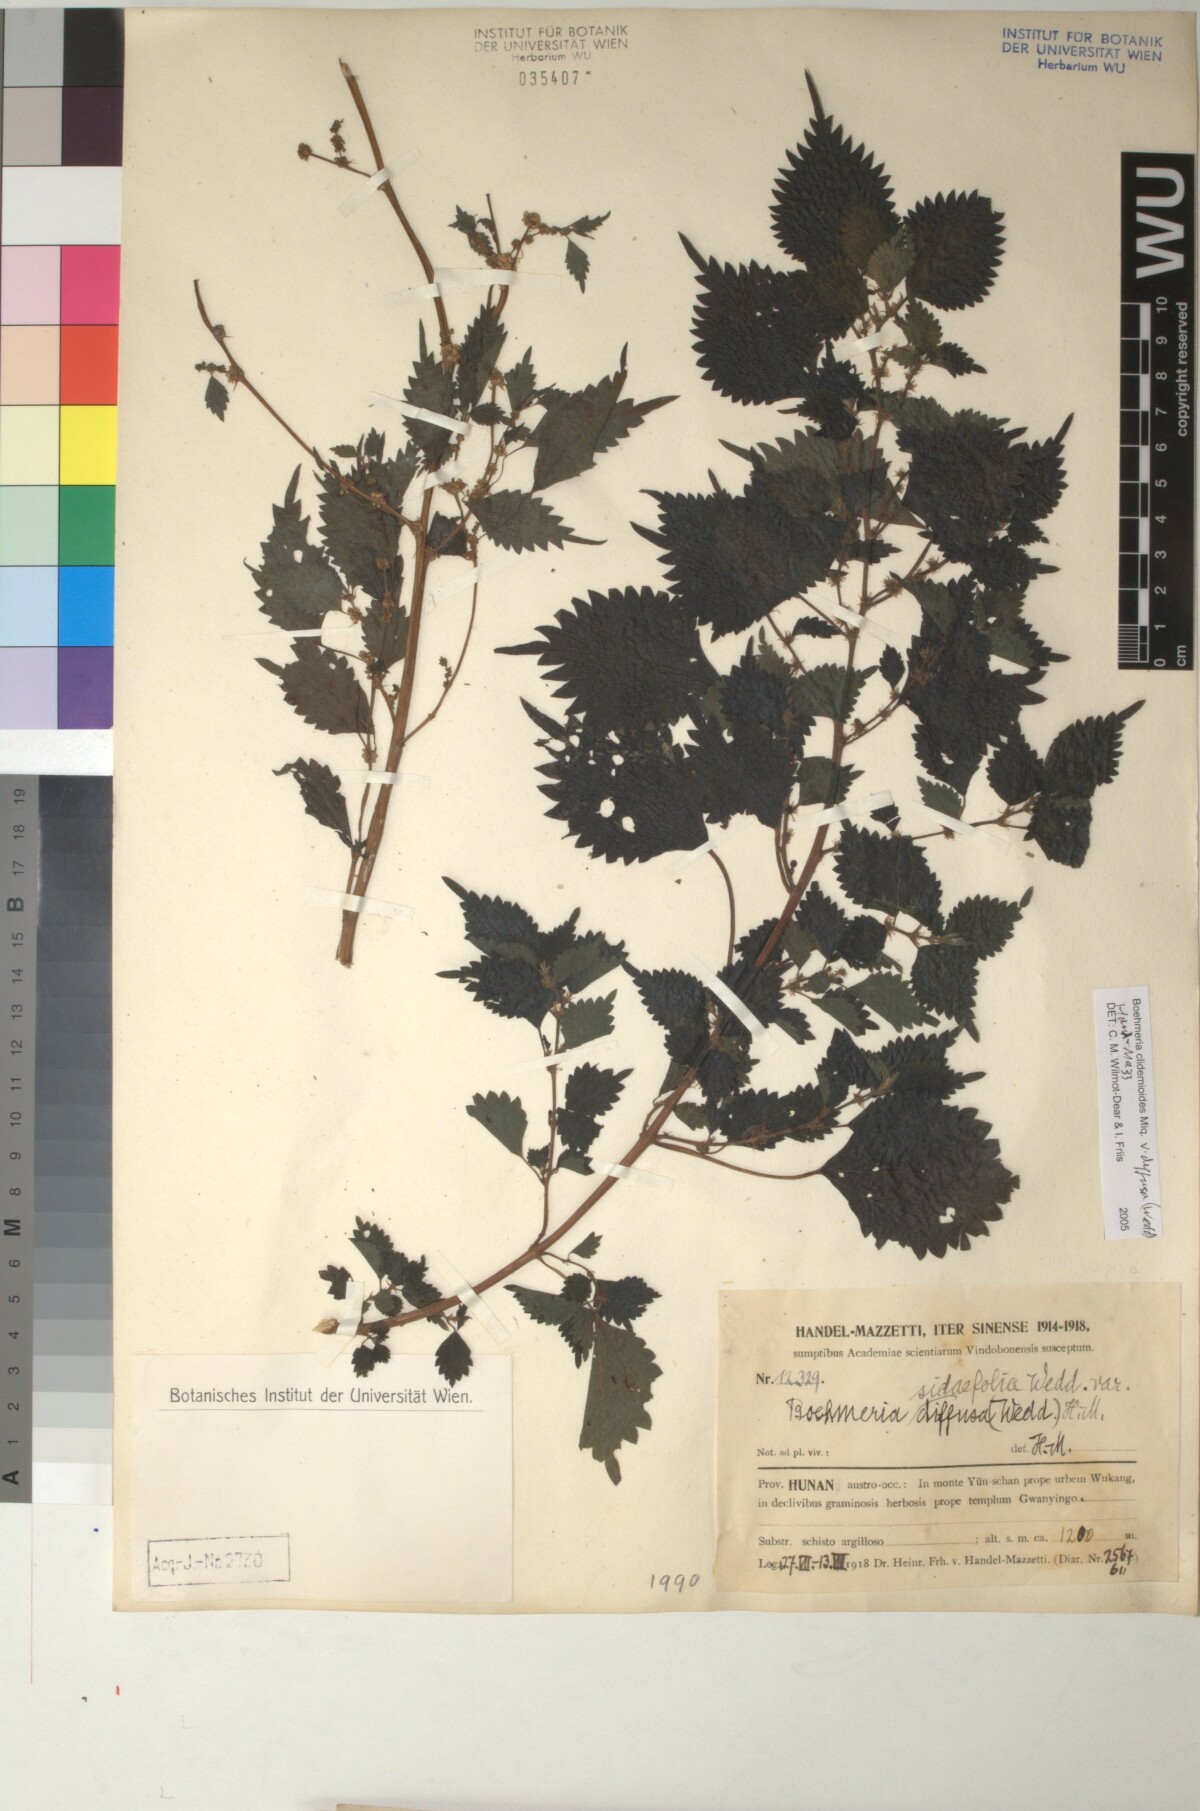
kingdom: Plantae
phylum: Tracheophyta
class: Magnoliopsida
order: Rosales
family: Urticaceae
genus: Boehmeria
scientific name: Boehmeria clidemioides
